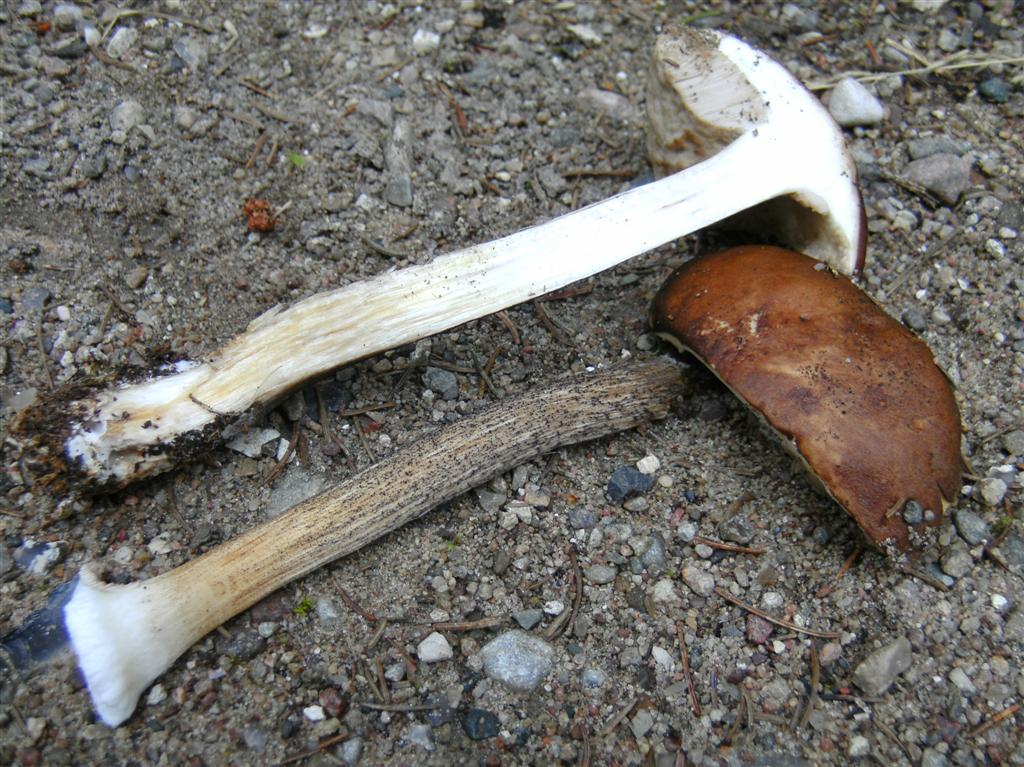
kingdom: Fungi
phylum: Basidiomycota
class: Agaricomycetes
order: Boletales
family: Boletaceae
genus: Leccinum
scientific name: Leccinum scabrum
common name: brun skælrørhat
